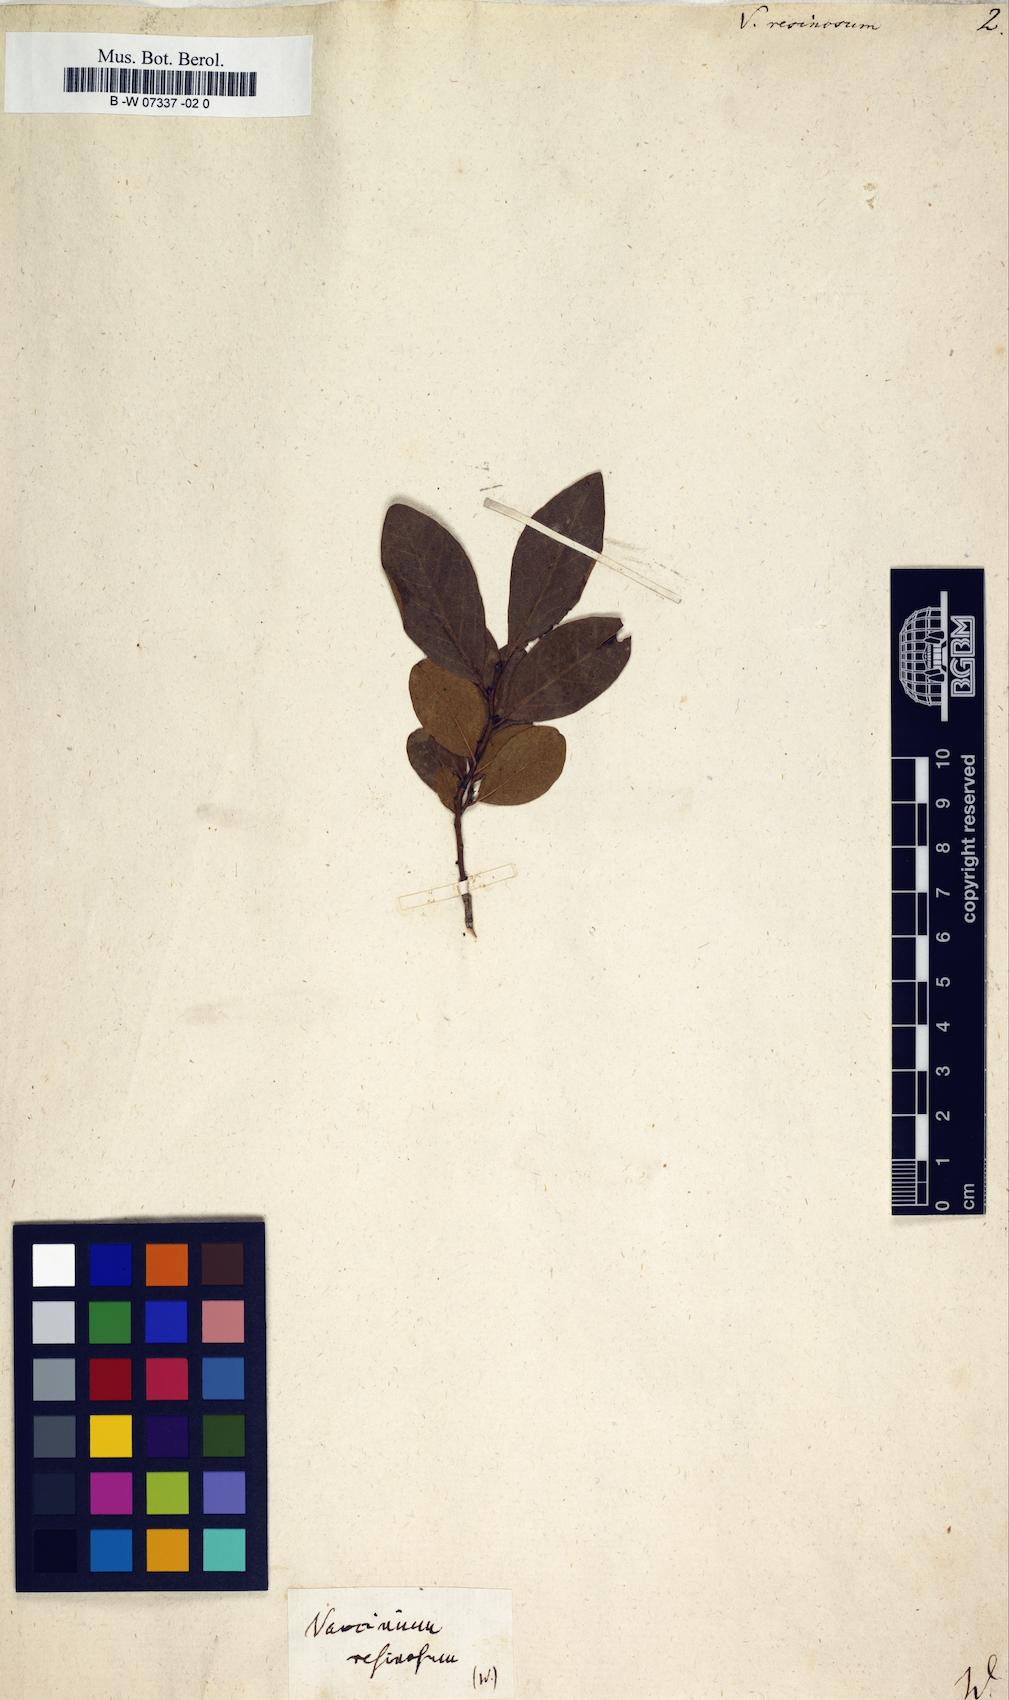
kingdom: Plantae
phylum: Tracheophyta
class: Magnoliopsida
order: Ericales
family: Ericaceae
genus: Gaylussacia
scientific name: Gaylussacia baccata
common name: Black huckleberry
